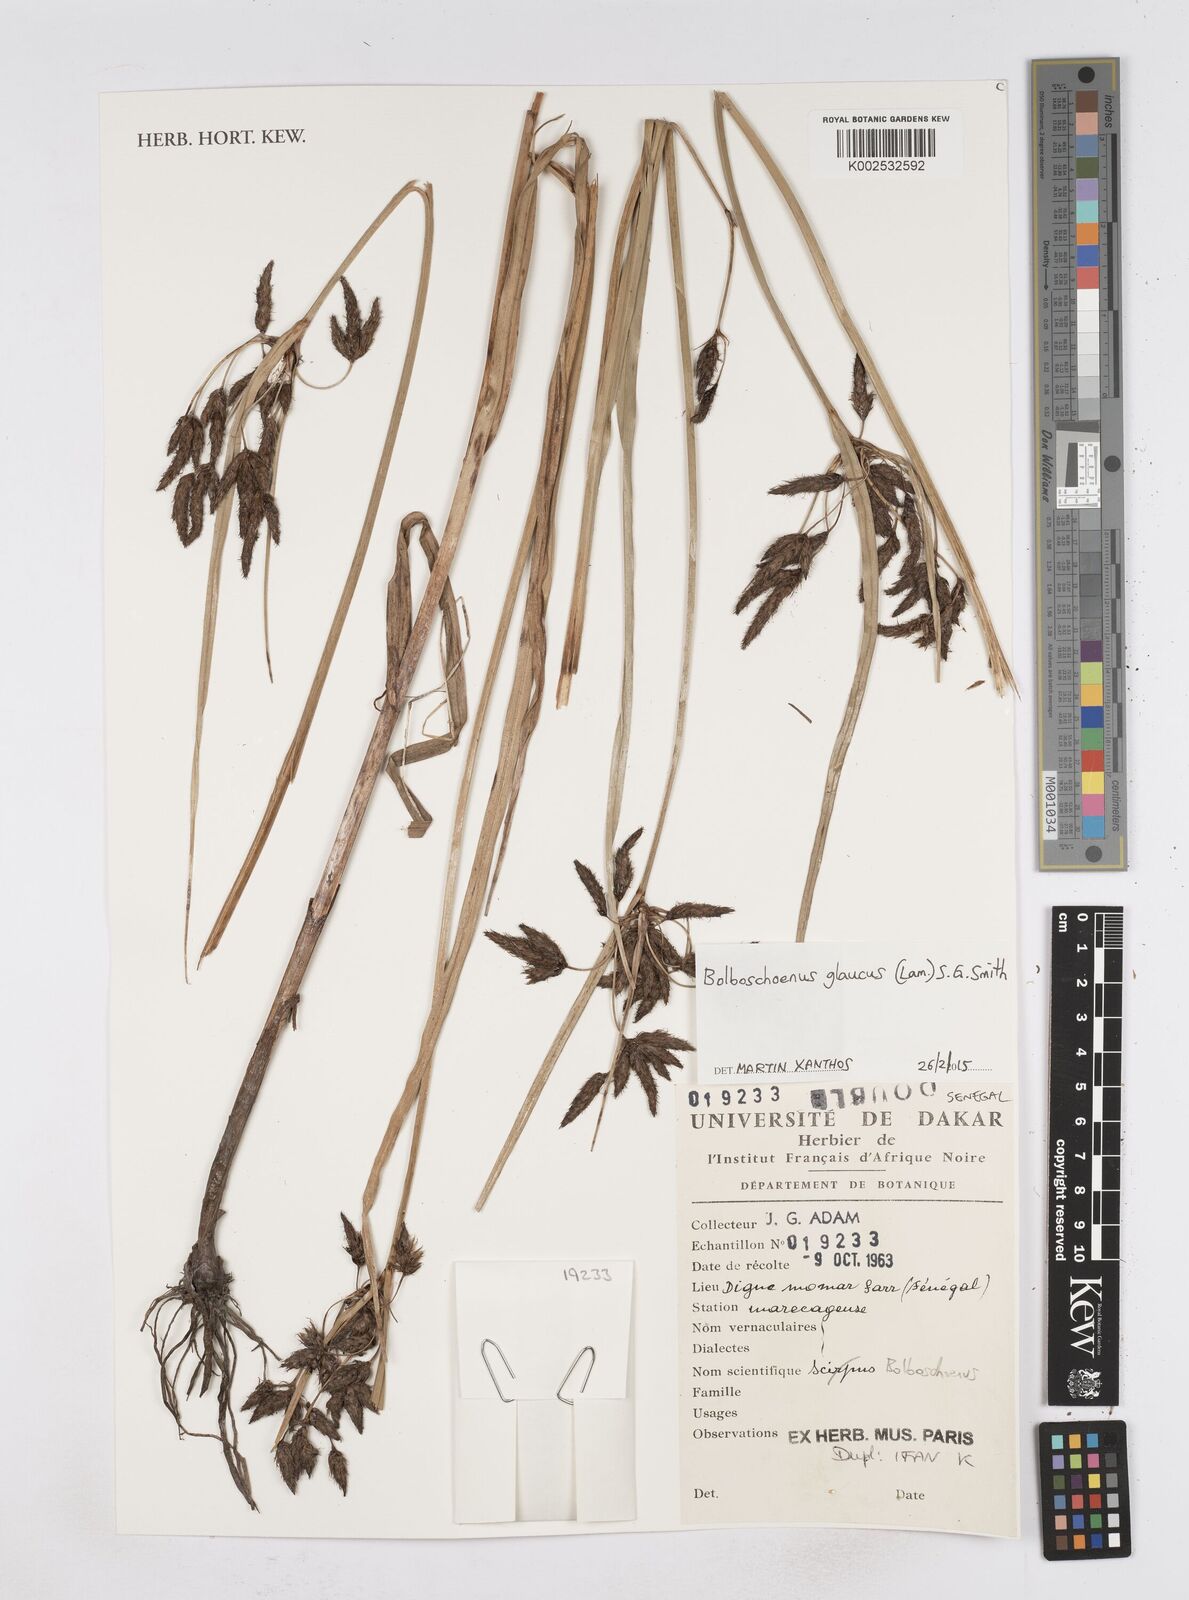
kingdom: Plantae
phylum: Tracheophyta
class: Liliopsida
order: Poales
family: Cyperaceae
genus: Bolboschoenus
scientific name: Bolboschoenus glaucus
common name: Tuberous bulrush
